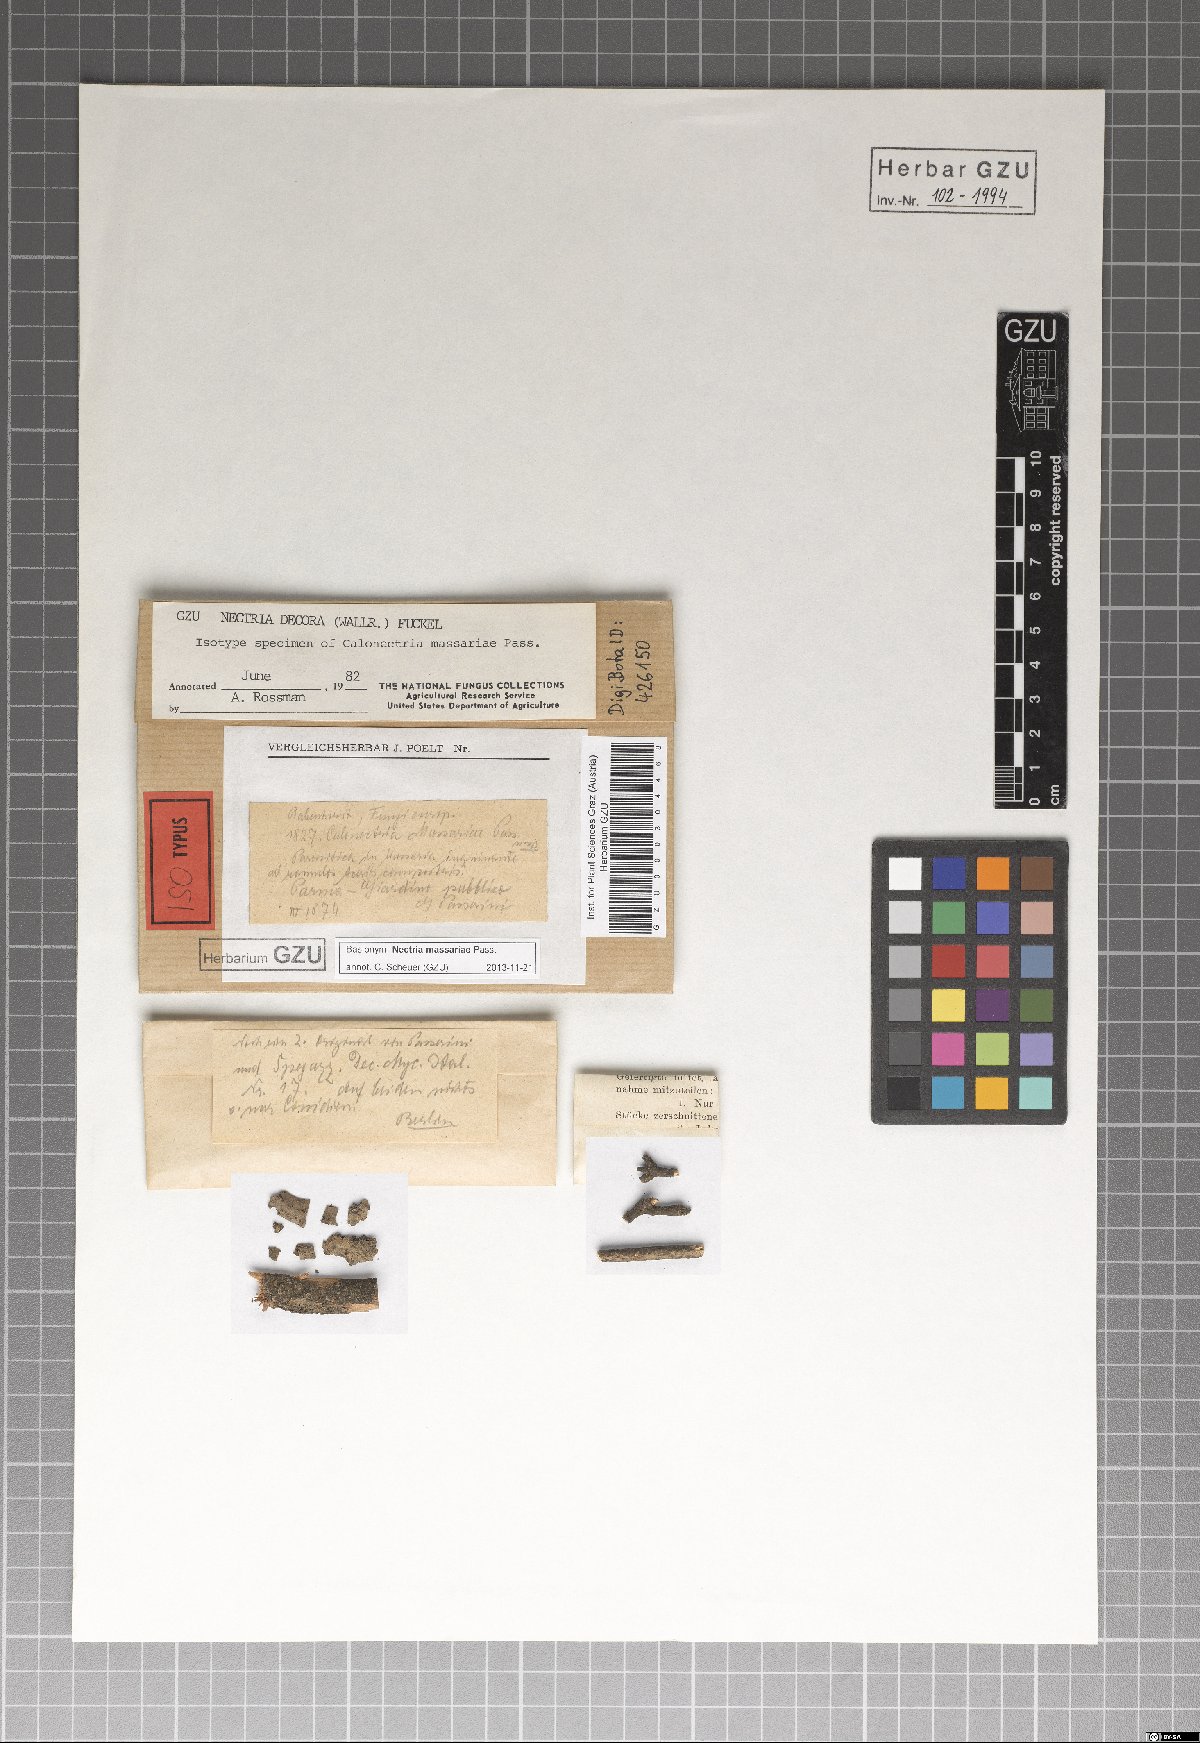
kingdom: Fungi
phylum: Ascomycota
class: Sordariomycetes
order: Hypocreales
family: Flammocladiellaceae
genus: Flammocladiella
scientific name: Flammocladiella decora
